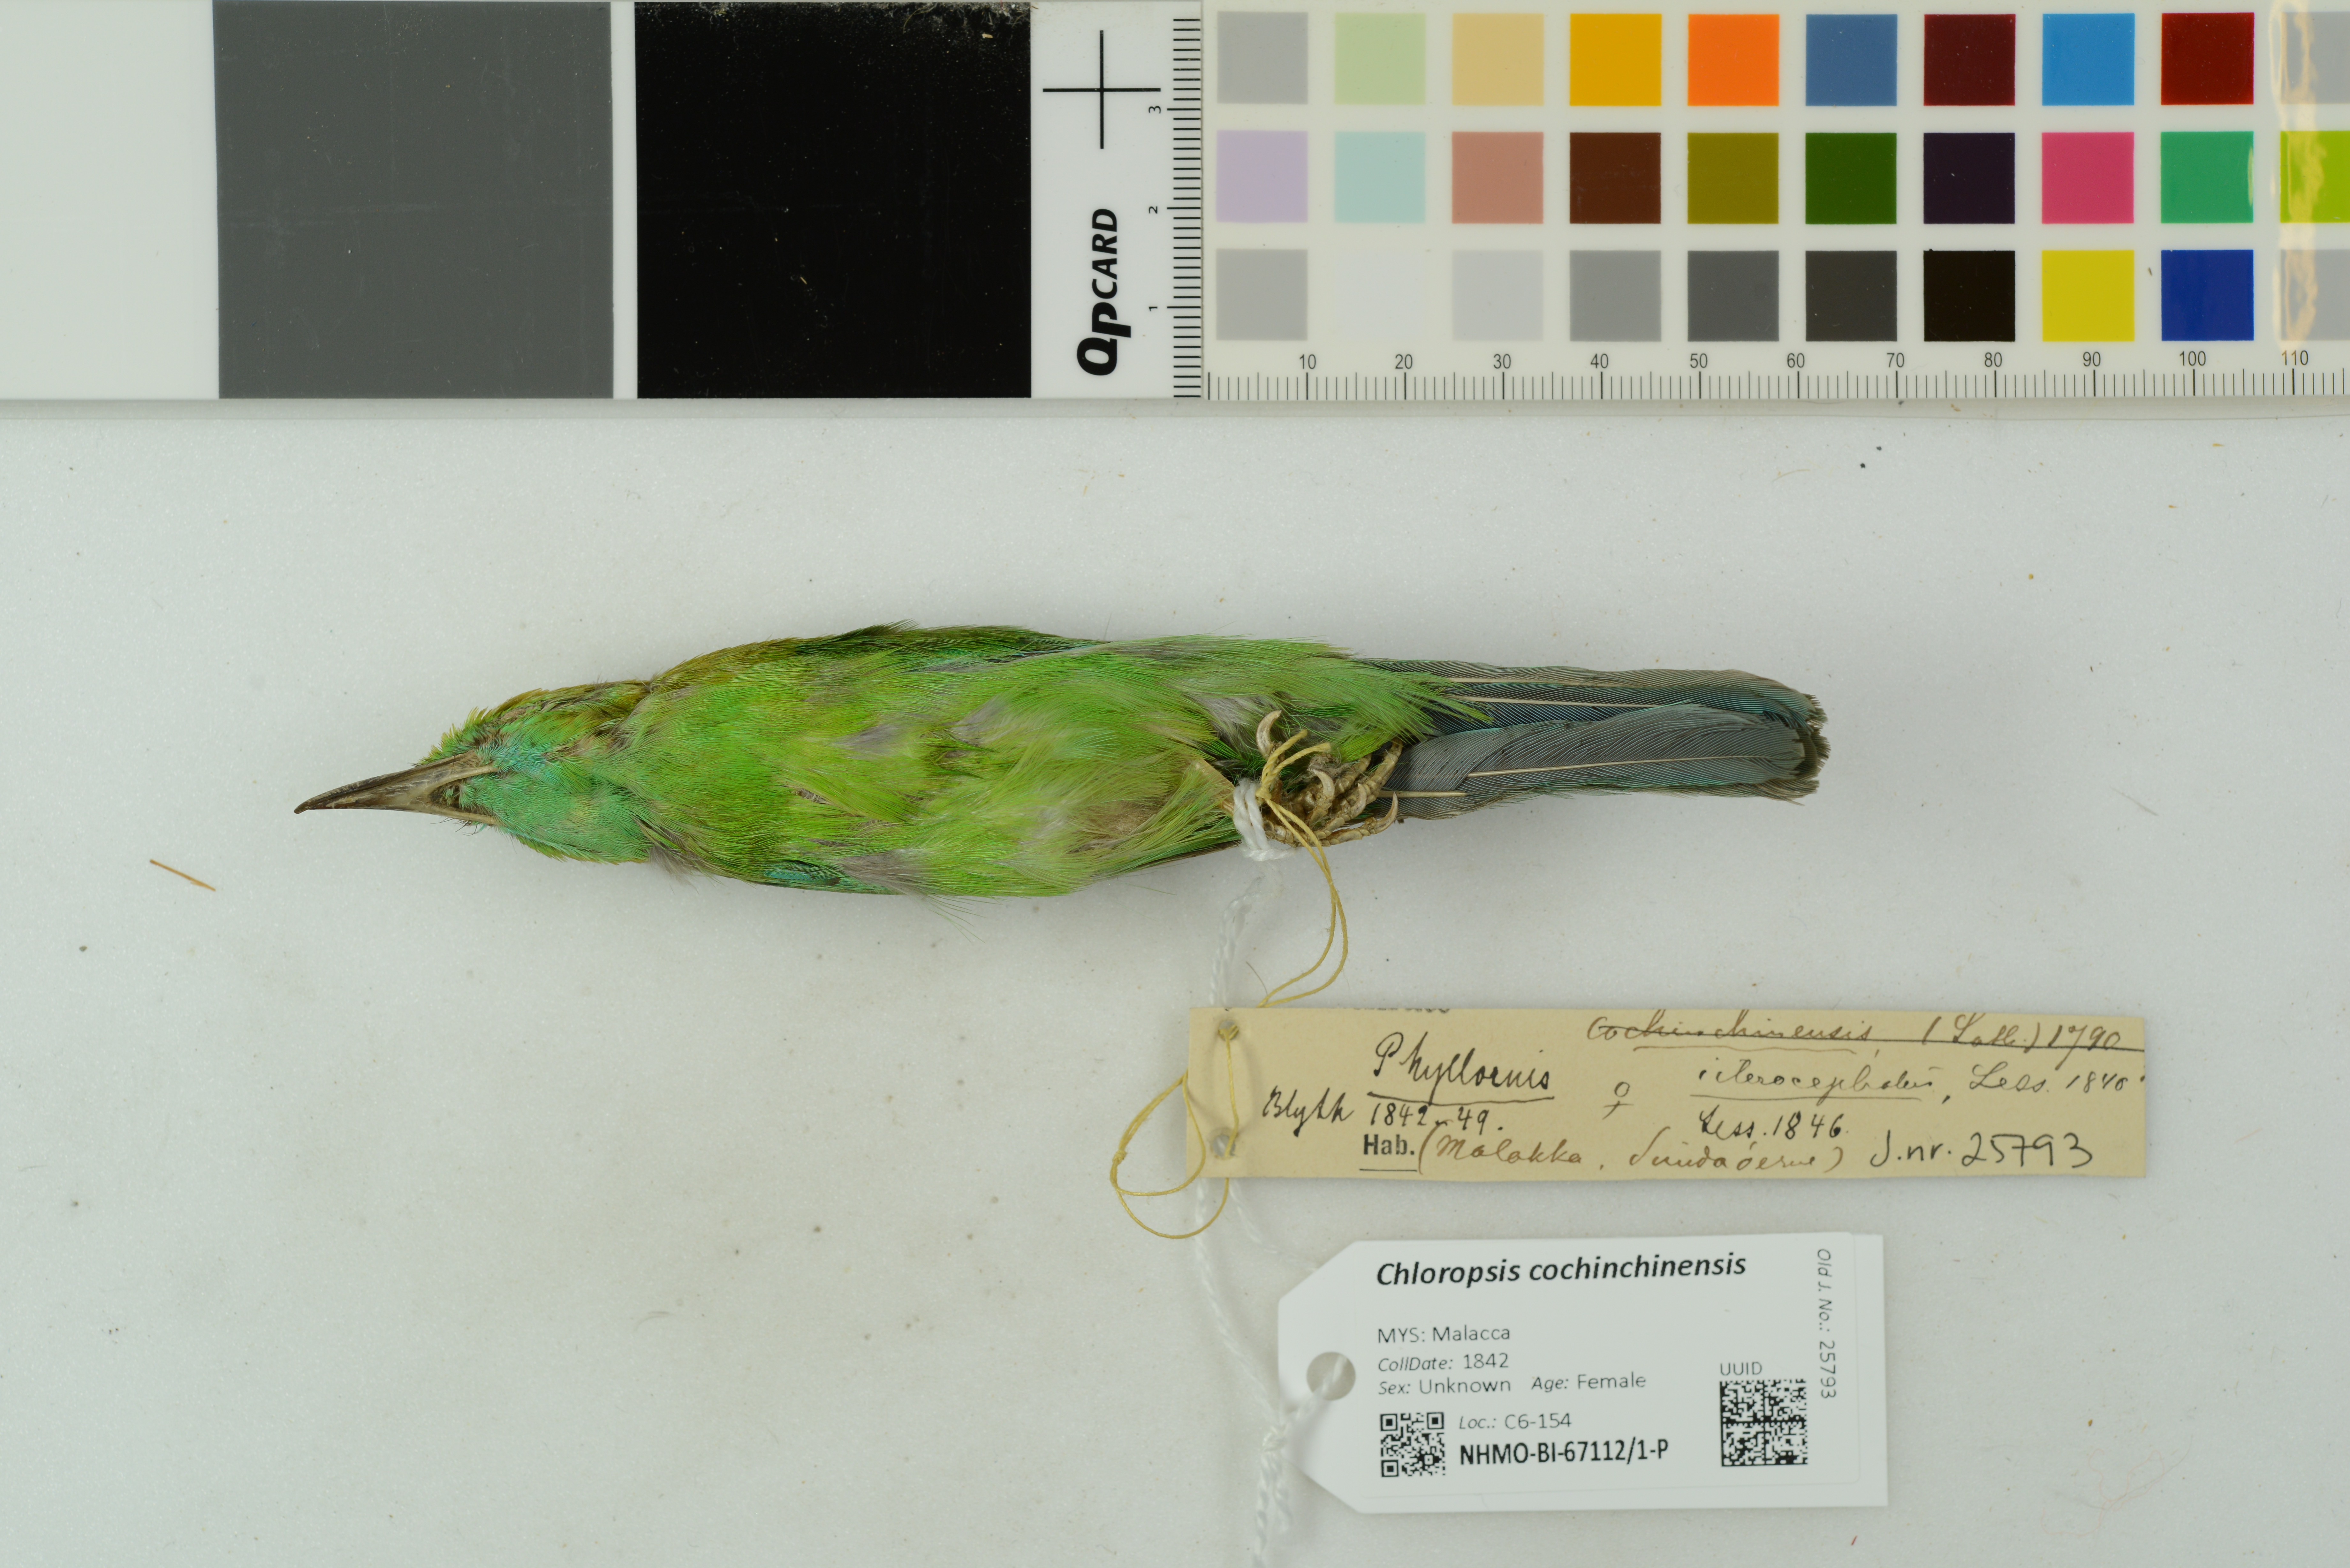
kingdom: Animalia
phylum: Chordata
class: Aves
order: Passeriformes
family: Chloropseidae
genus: Chloropsis
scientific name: Chloropsis cochinchinensis
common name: Blue-winged leafbird
